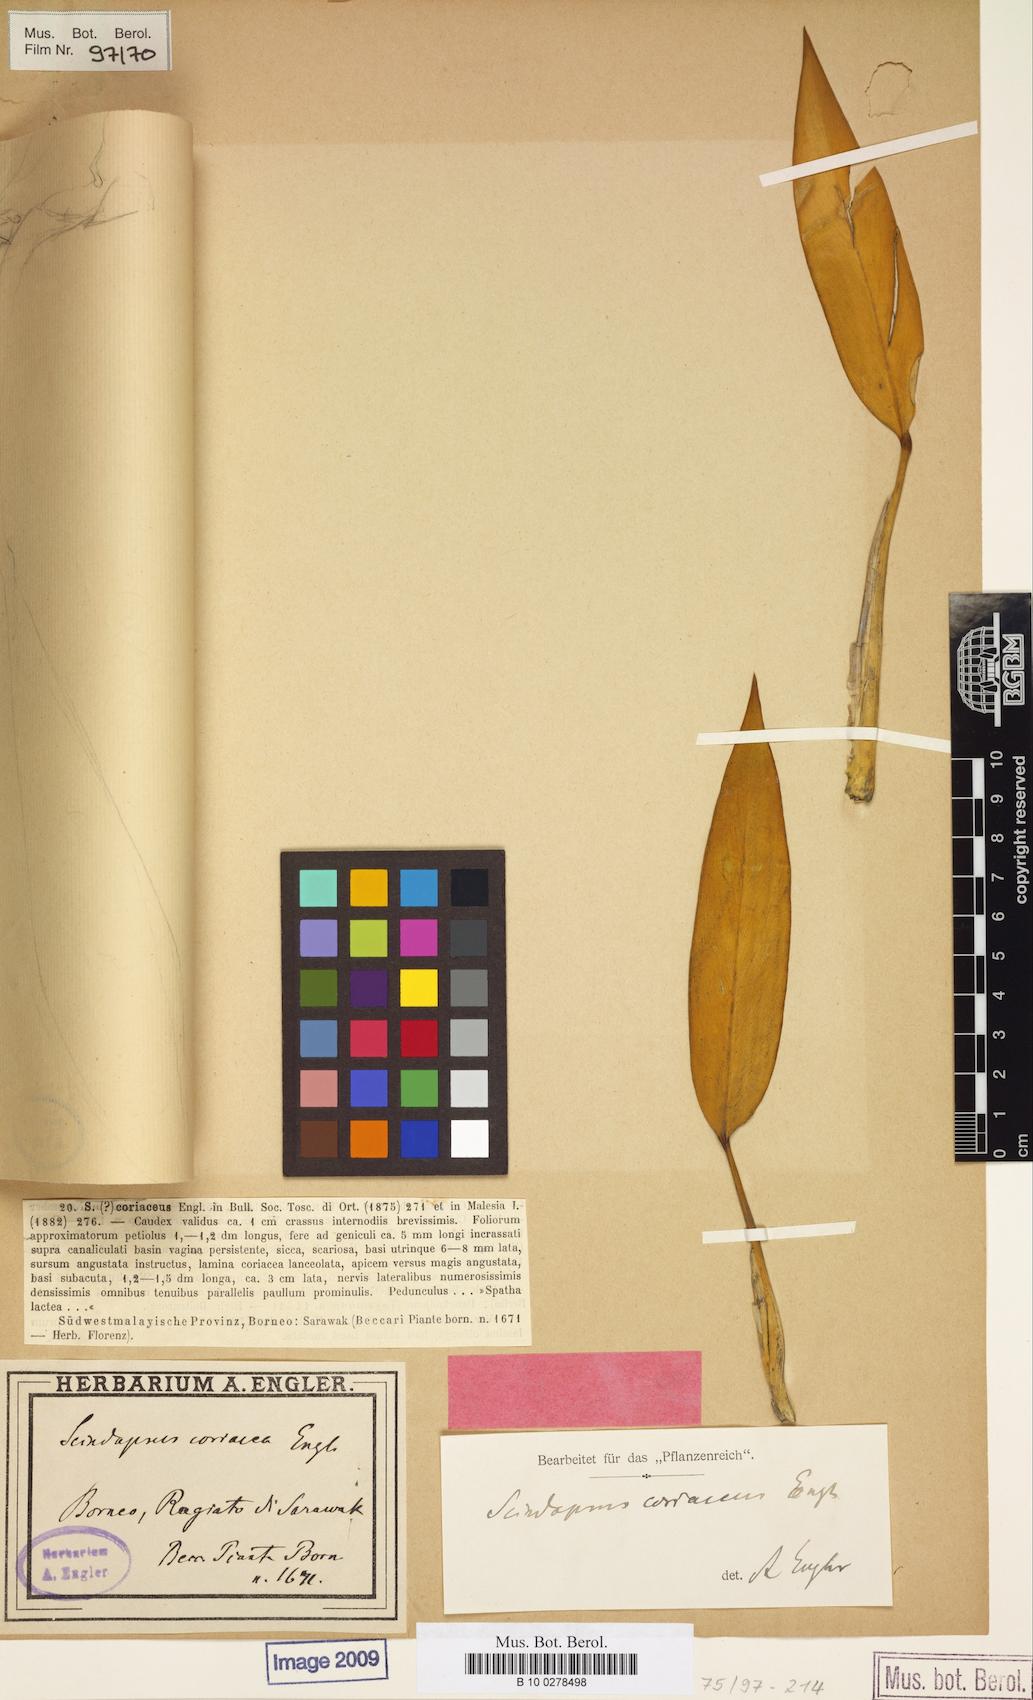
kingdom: Plantae
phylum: Tracheophyta
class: Liliopsida
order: Alismatales
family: Araceae
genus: Scindapsus
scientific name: Scindapsus coriaceus
